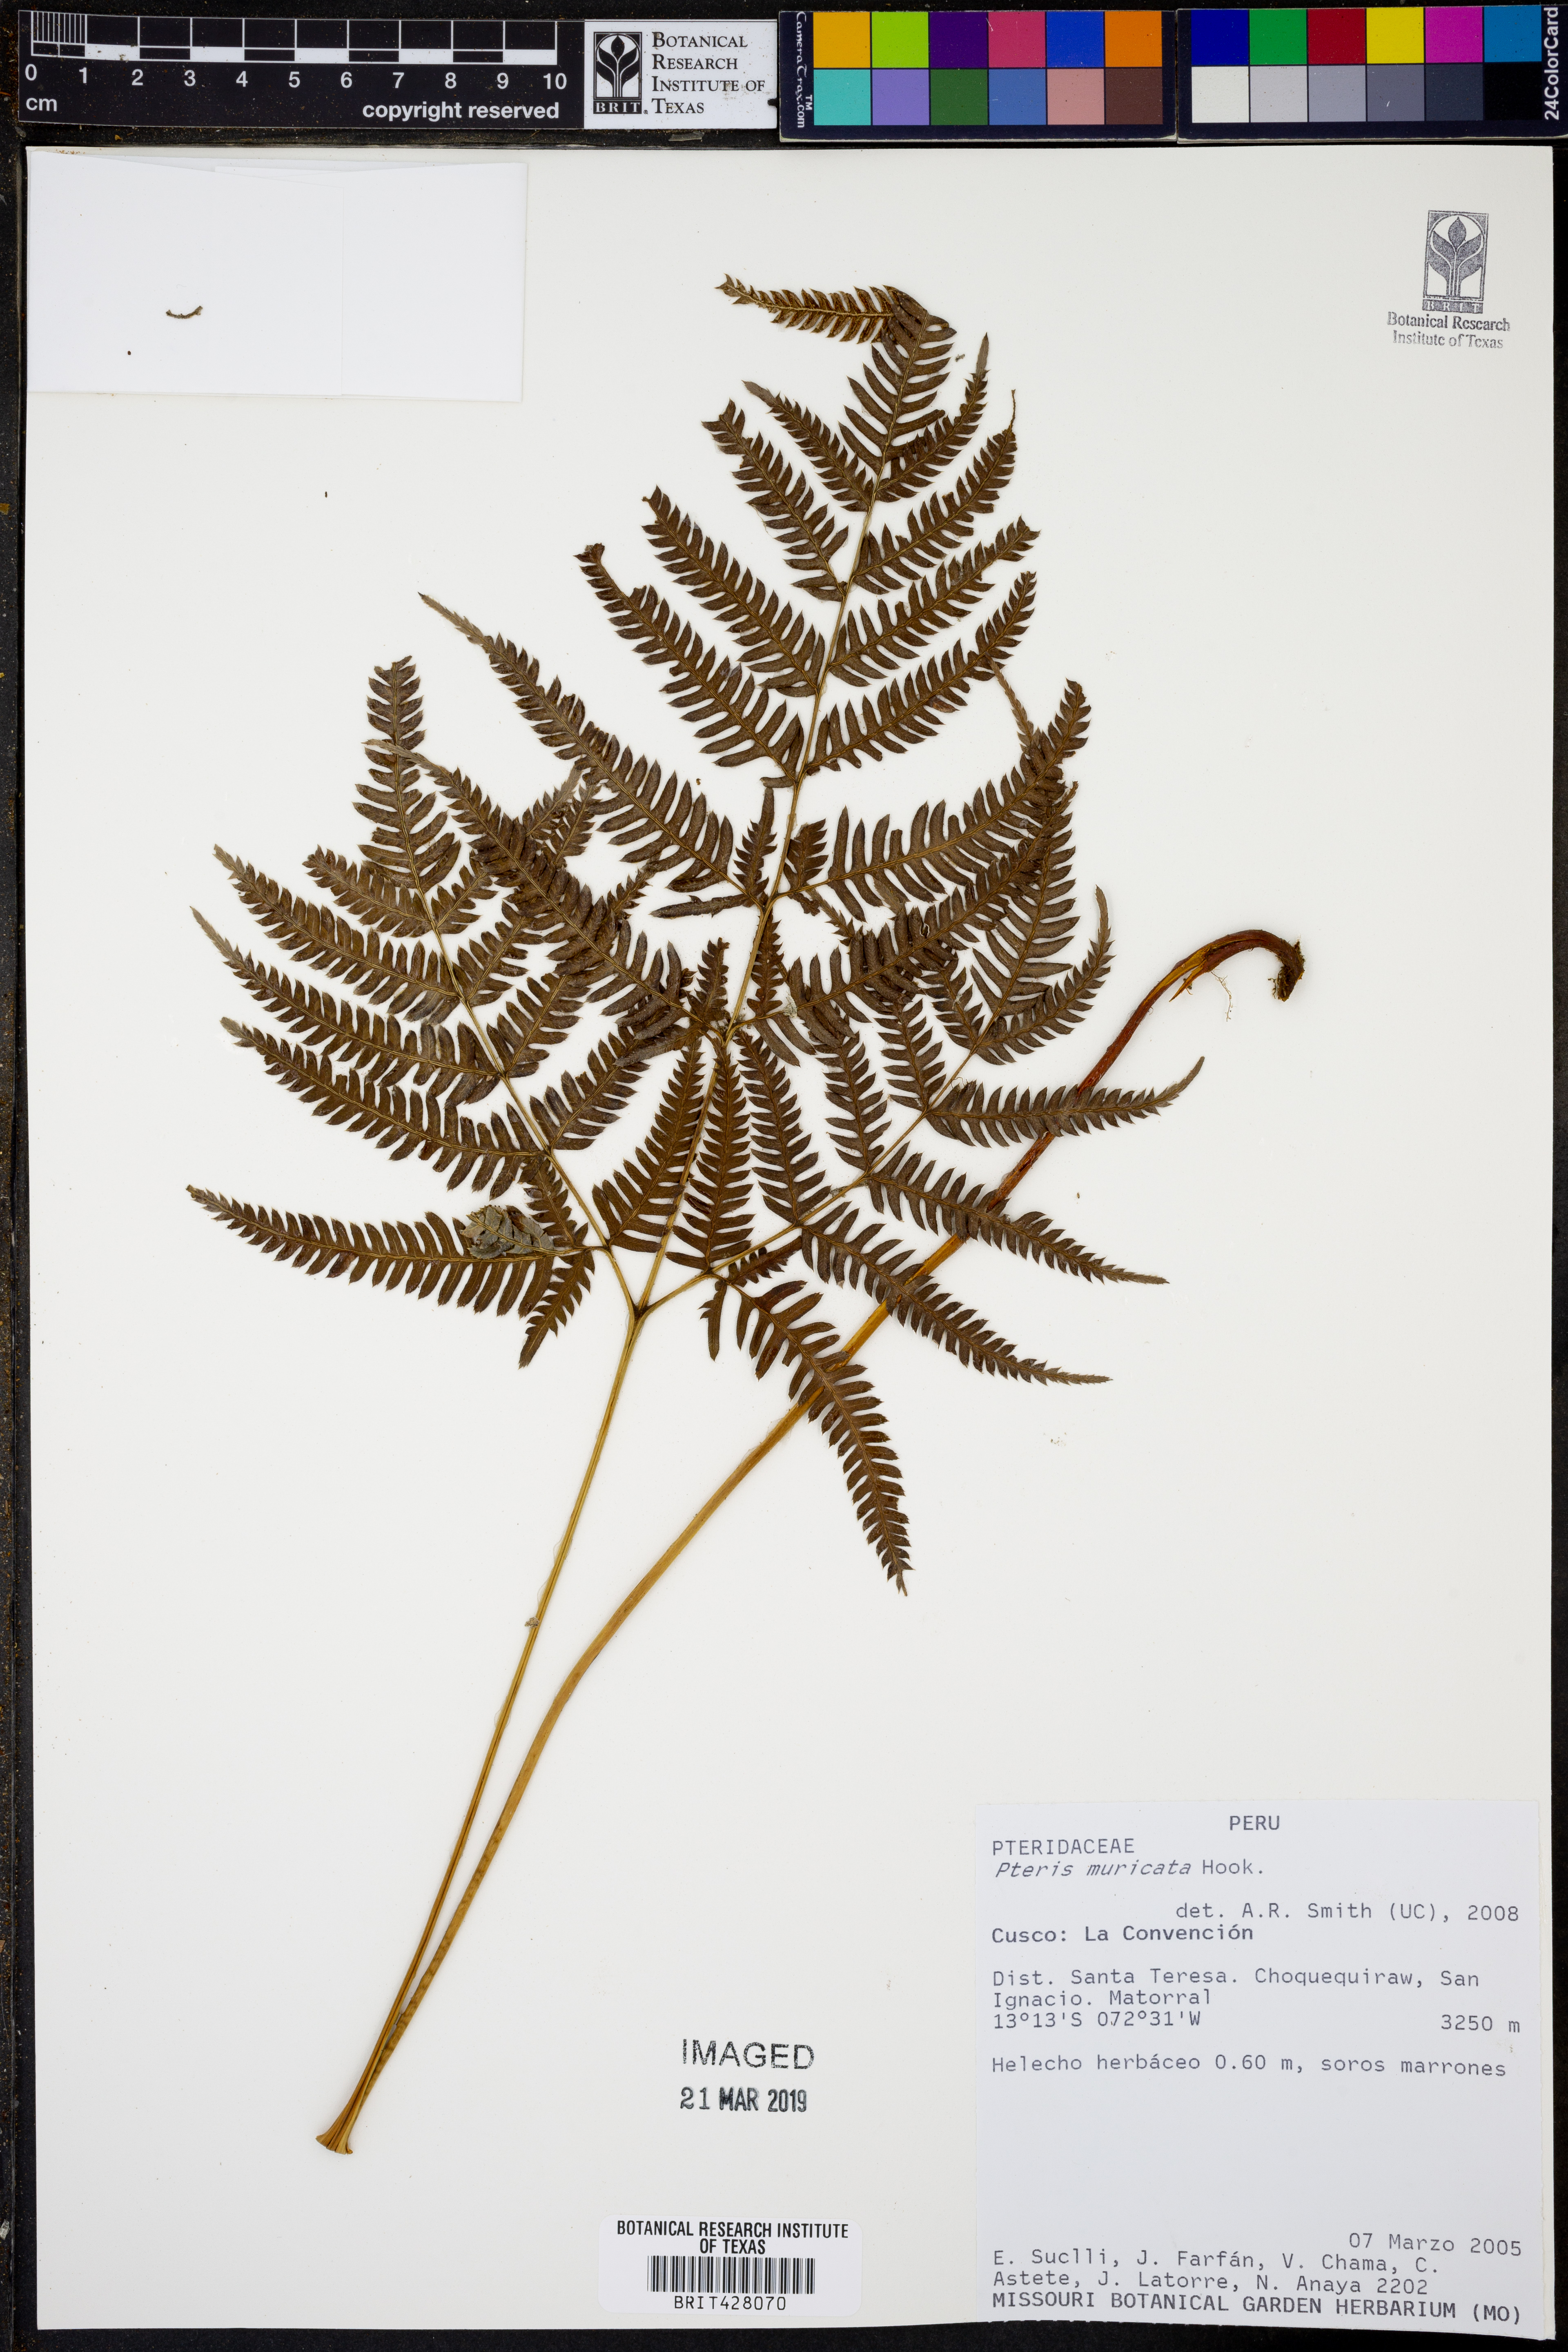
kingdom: Plantae
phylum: Tracheophyta
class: Polypodiopsida
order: Polypodiales
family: Pteridaceae
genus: Pteris
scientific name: Pteris muricata
